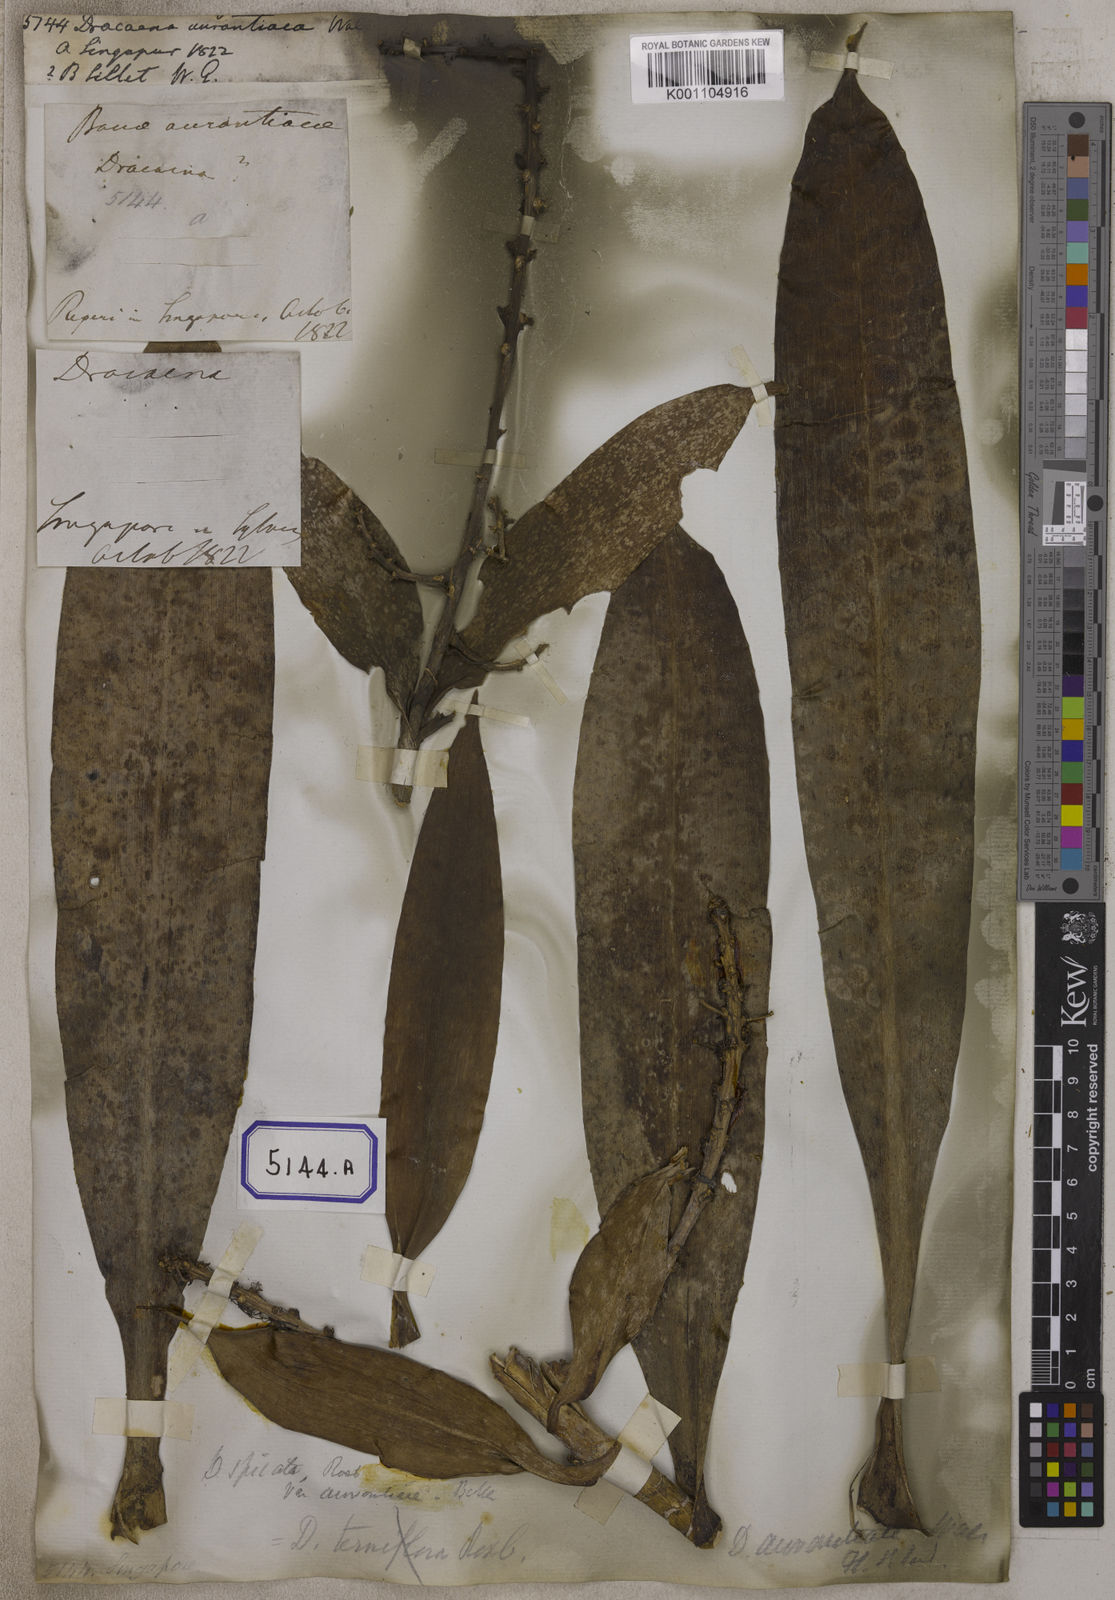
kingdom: Plantae
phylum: Tracheophyta
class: Liliopsida
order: Asparagales
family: Asparagaceae
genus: Dracaena
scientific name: Dracaena
